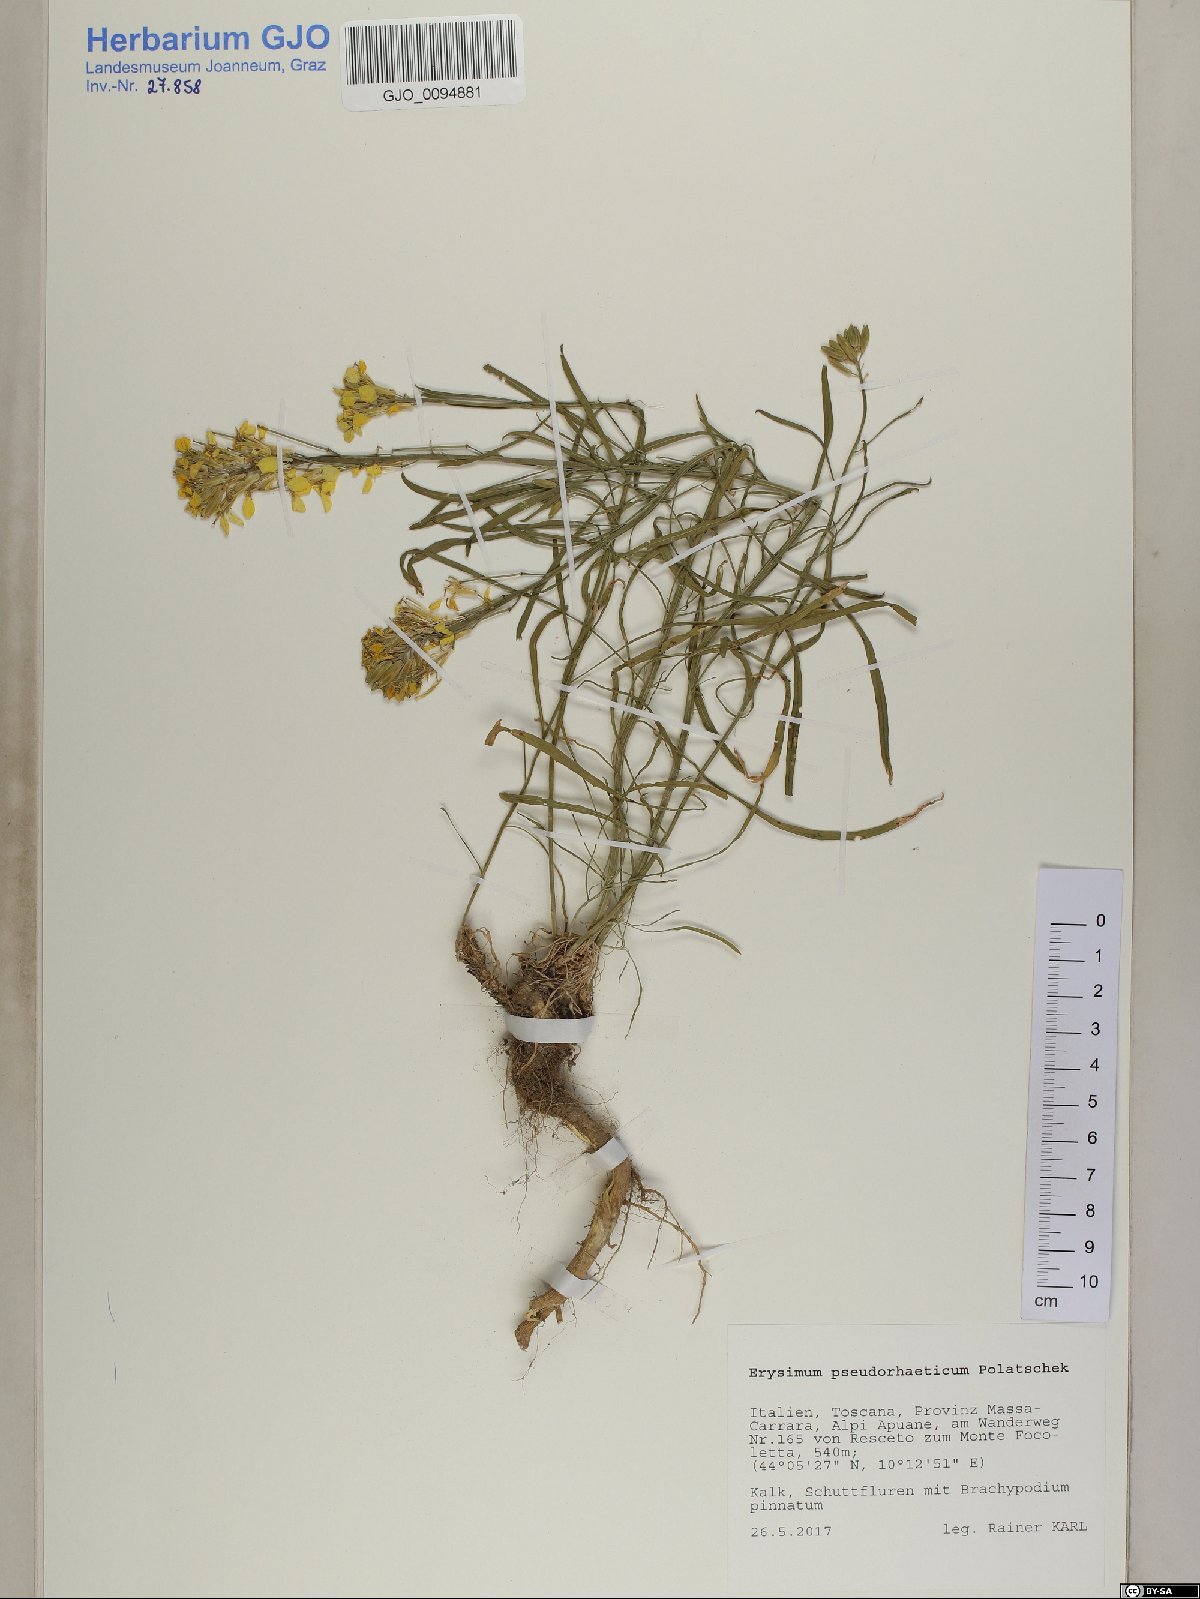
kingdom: Plantae
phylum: Tracheophyta
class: Magnoliopsida
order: Brassicales
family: Brassicaceae
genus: Erysimum
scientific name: Erysimum pseudorhaeticum
